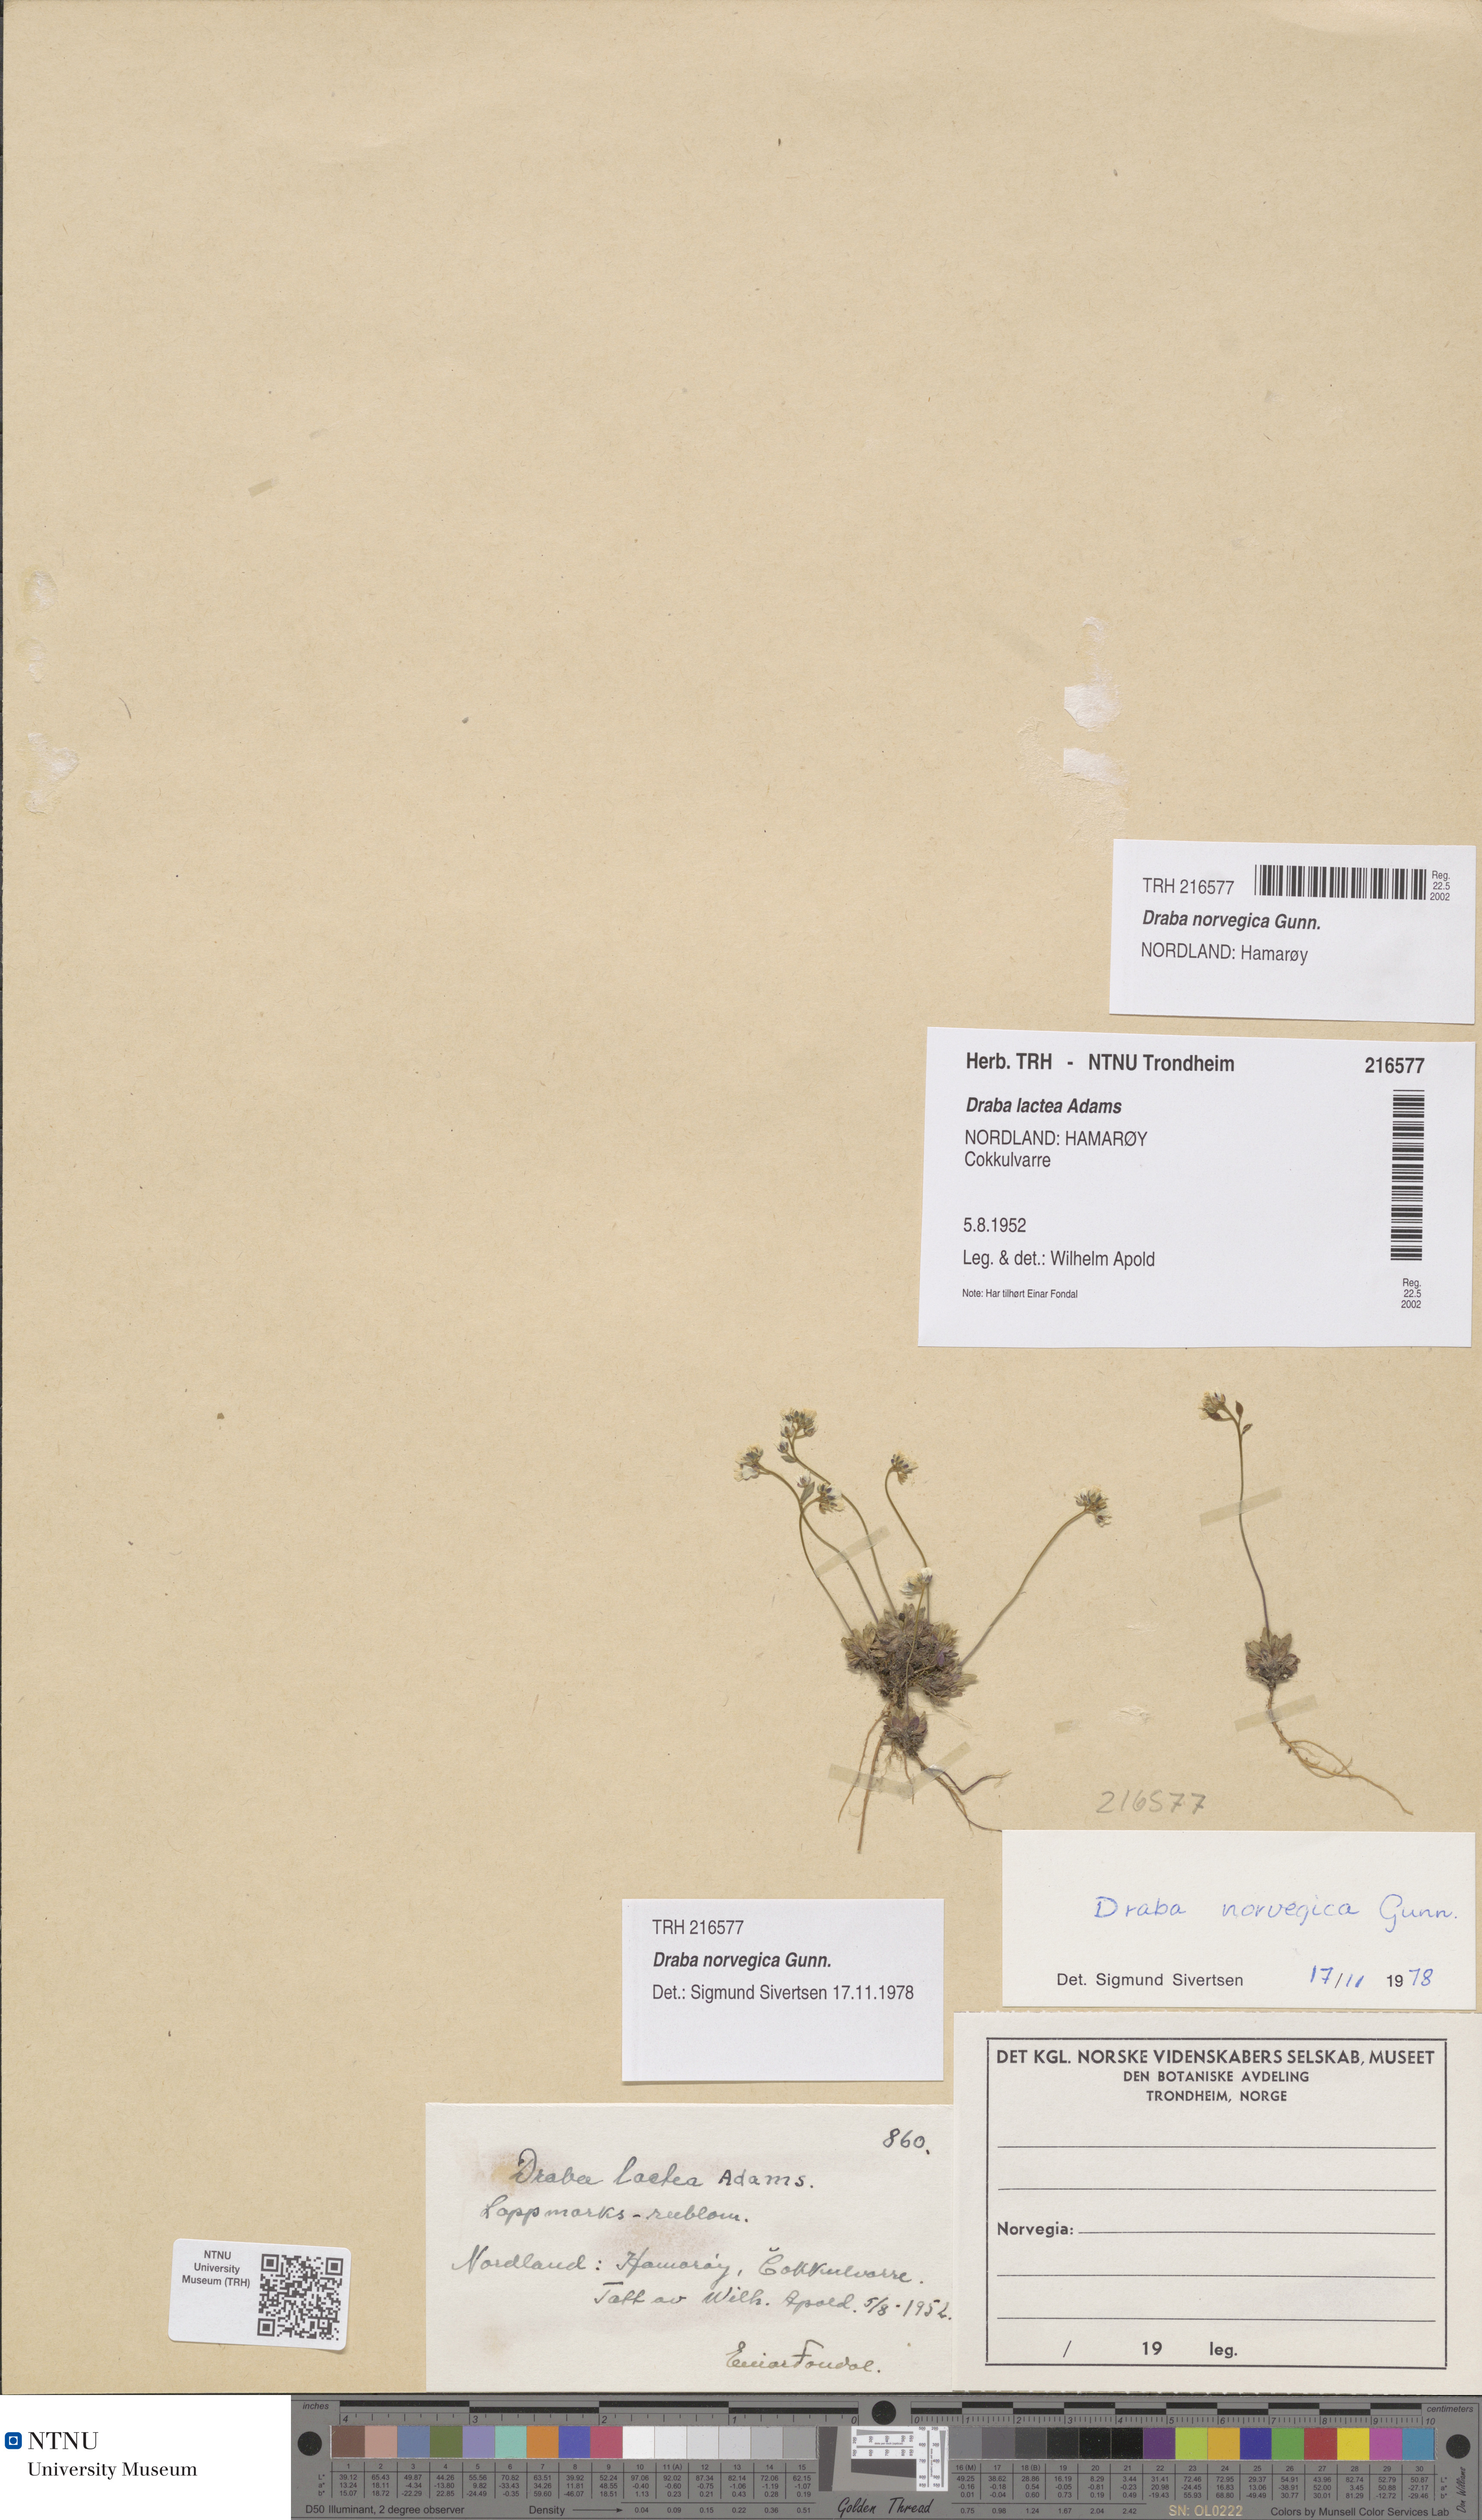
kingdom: Plantae
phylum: Tracheophyta
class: Magnoliopsida
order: Brassicales
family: Brassicaceae
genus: Draba
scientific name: Draba norvegica
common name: Rock whitlowgrass
